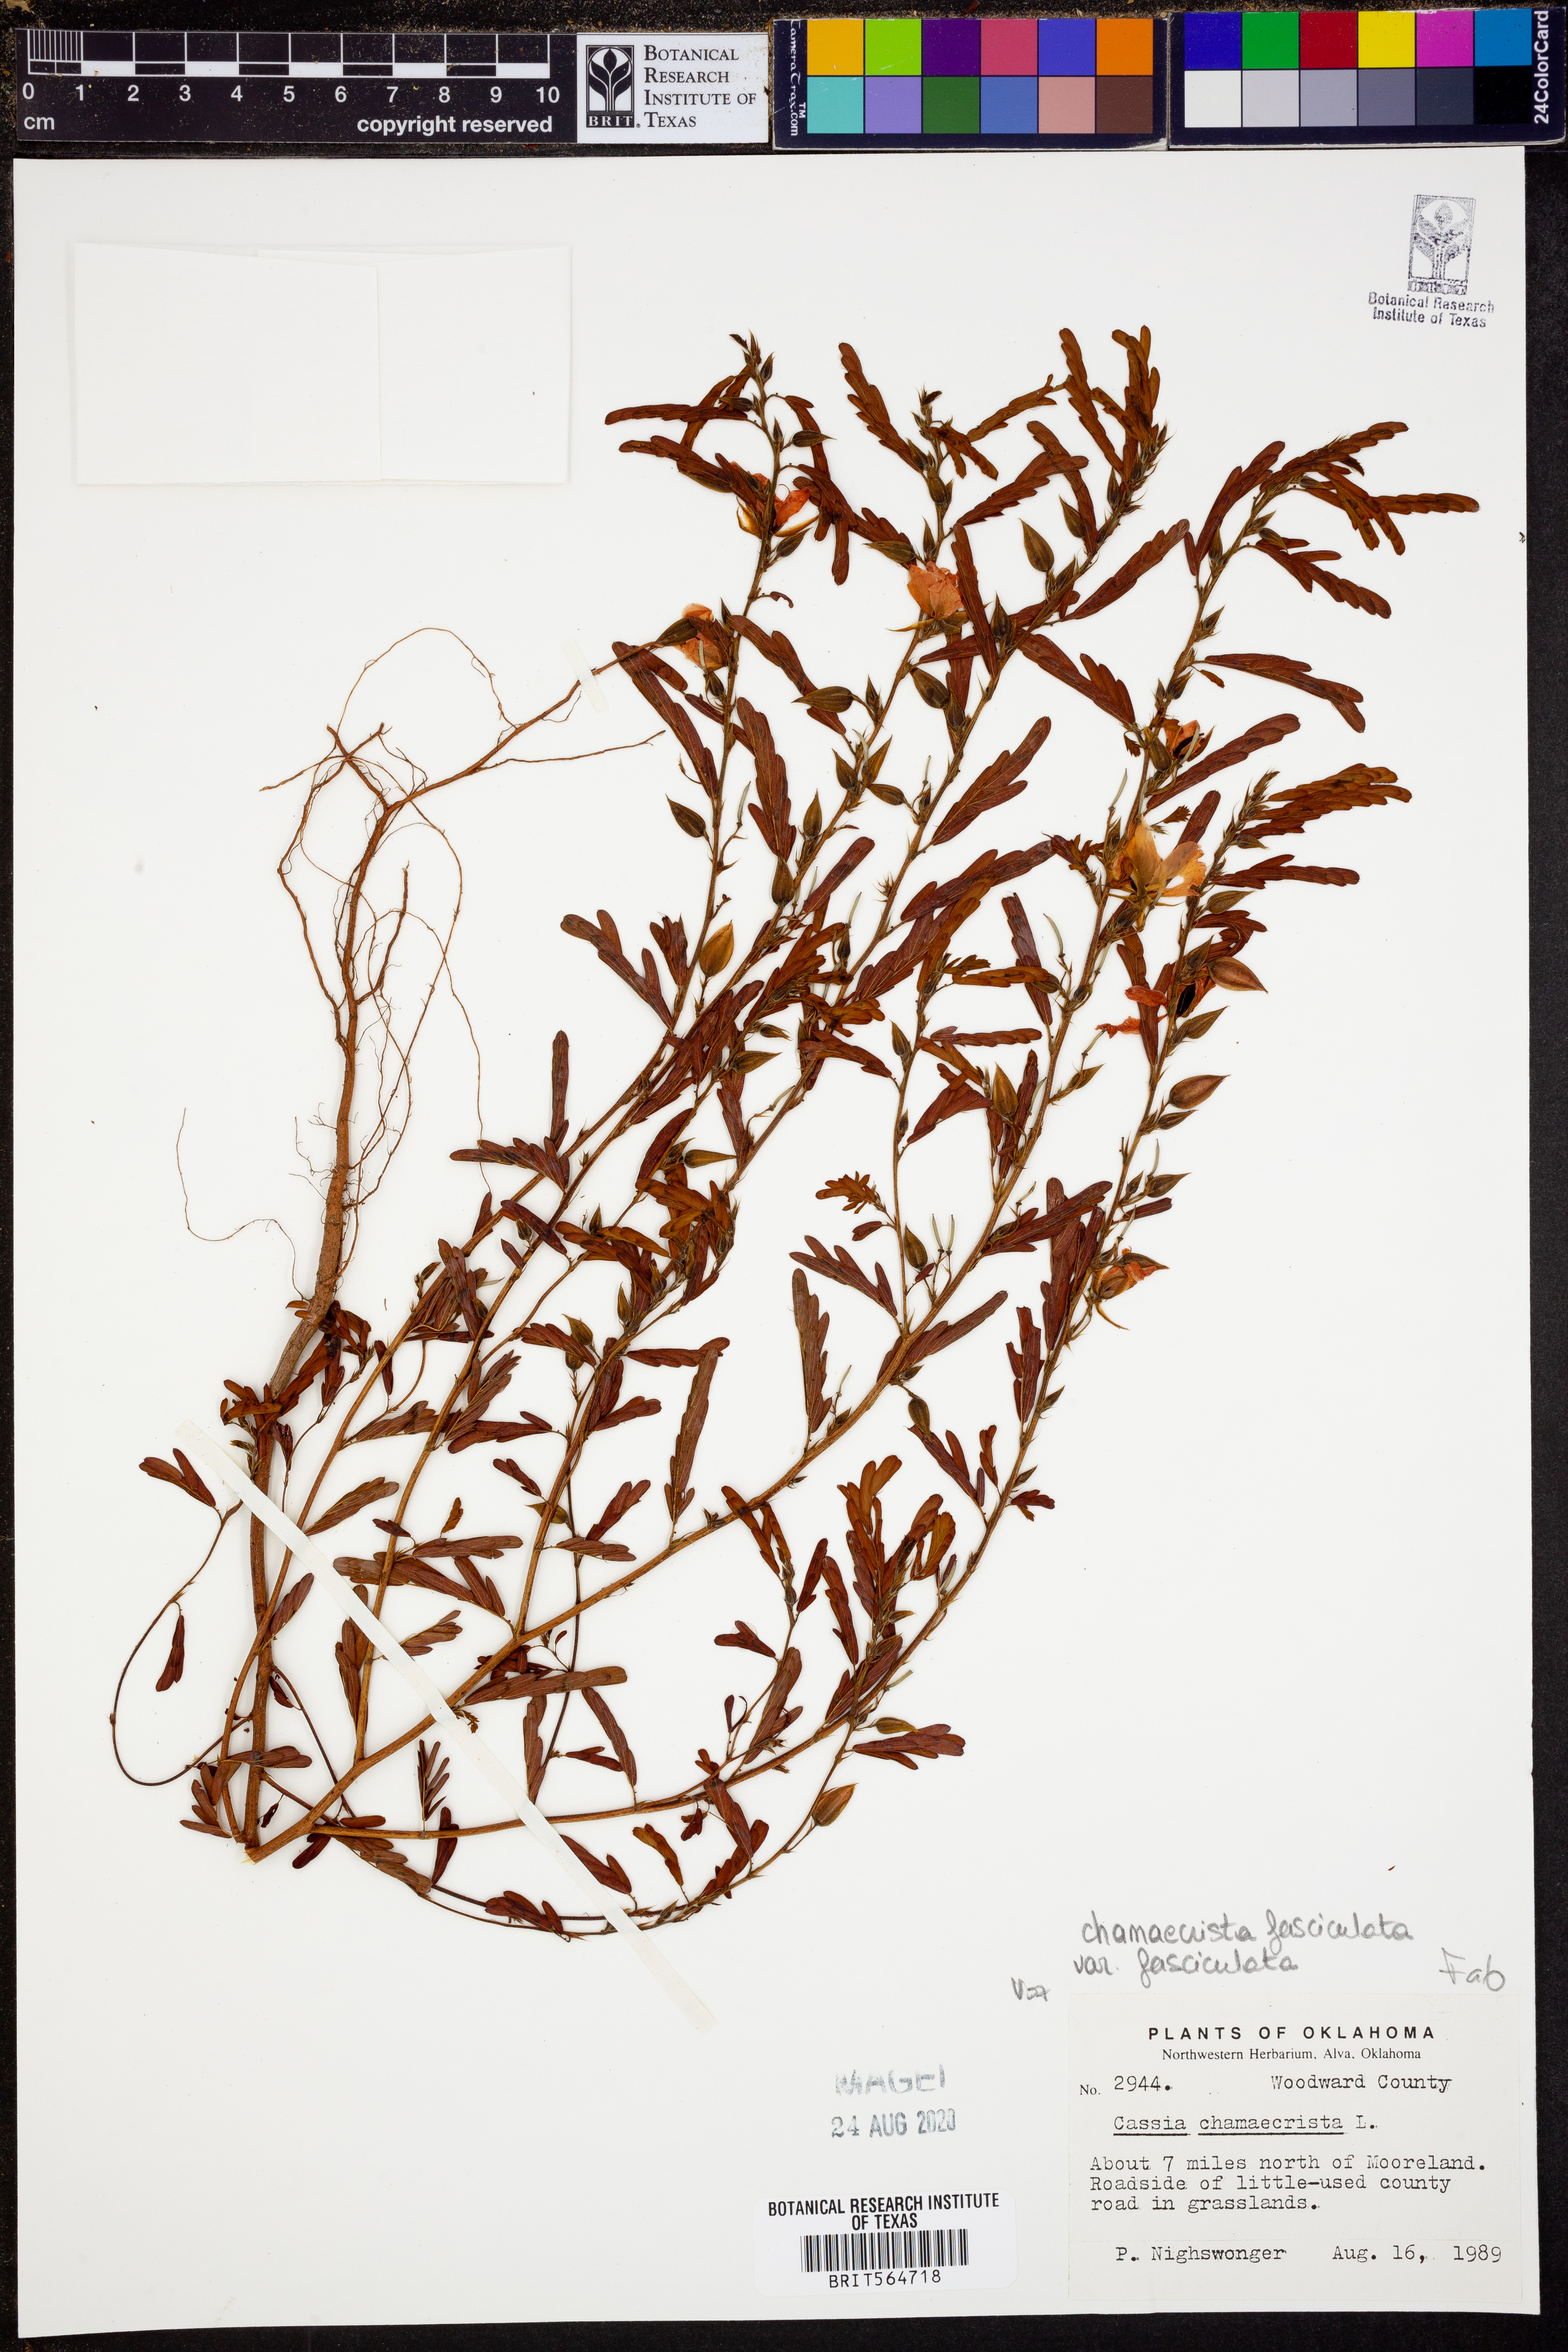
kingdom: Plantae
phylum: Tracheophyta
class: Magnoliopsida
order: Fabales
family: Fabaceae
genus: Chamaecrista
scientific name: Chamaecrista fasciculata
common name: Golden cassia
